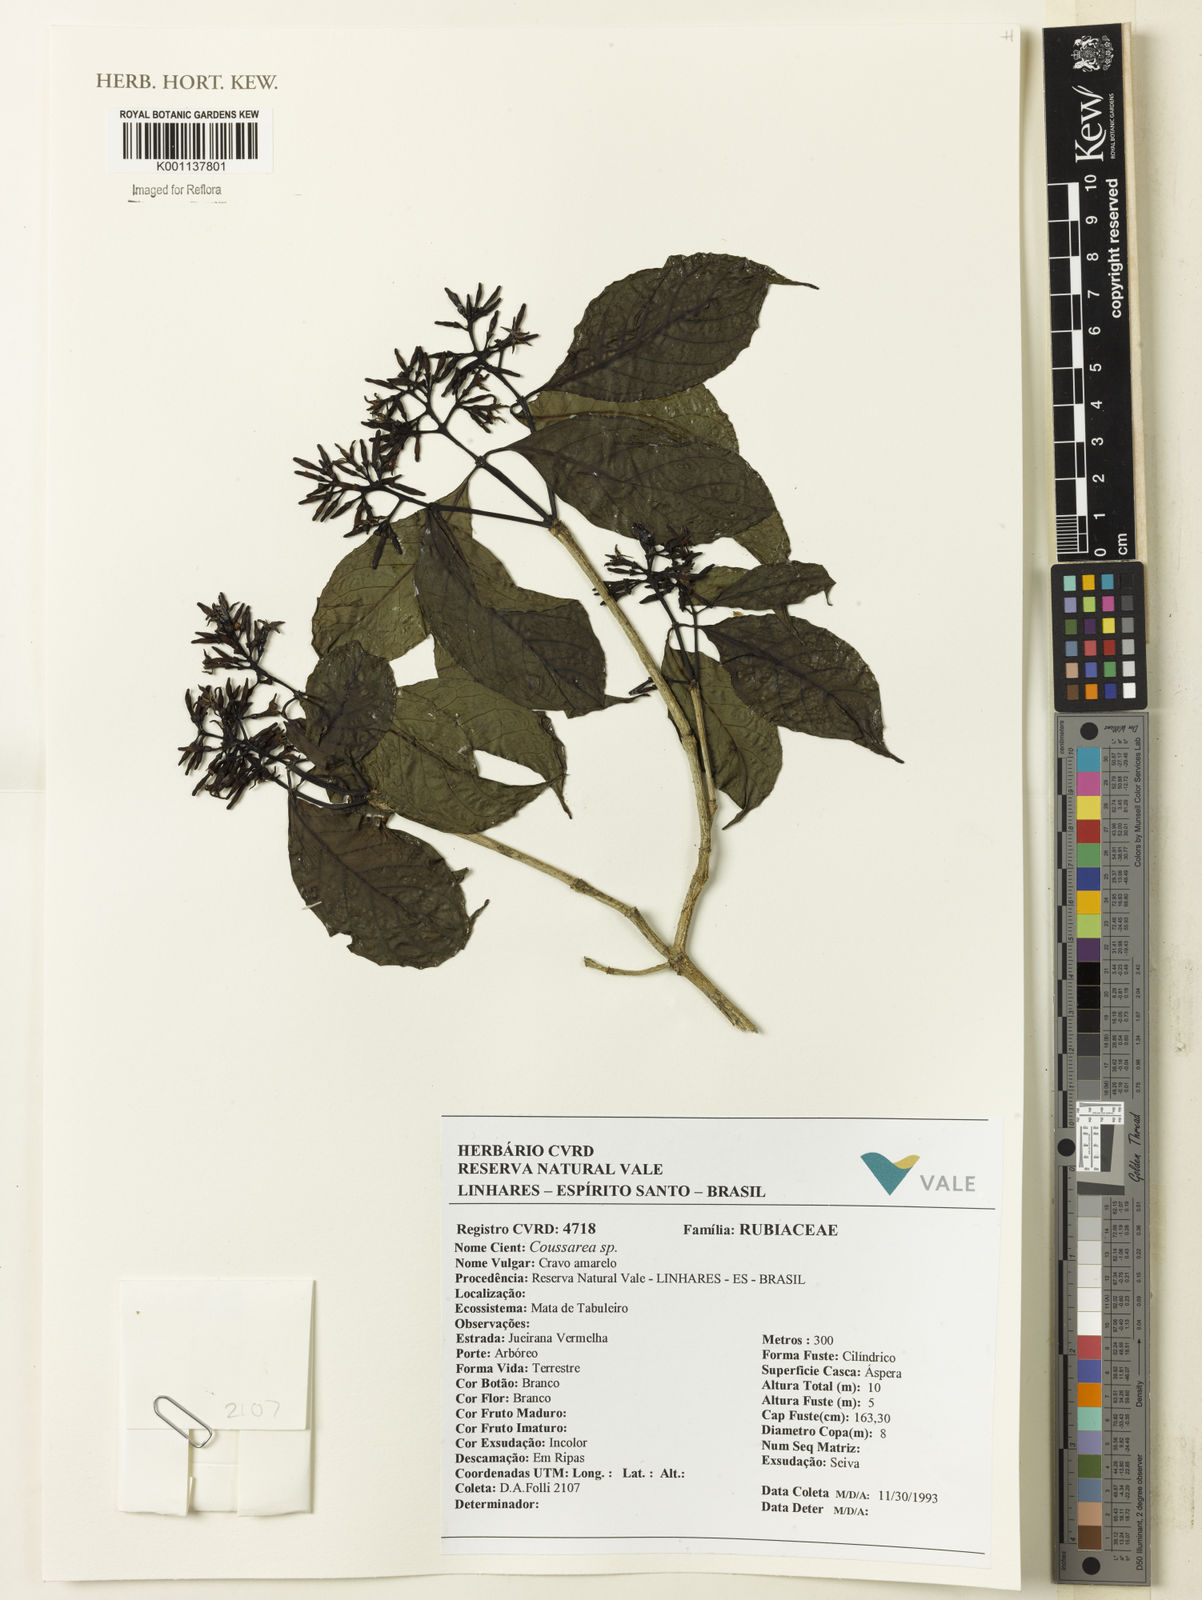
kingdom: Plantae
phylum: Tracheophyta
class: Magnoliopsida
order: Gentianales
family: Rubiaceae
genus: Coussarea
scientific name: Coussarea
